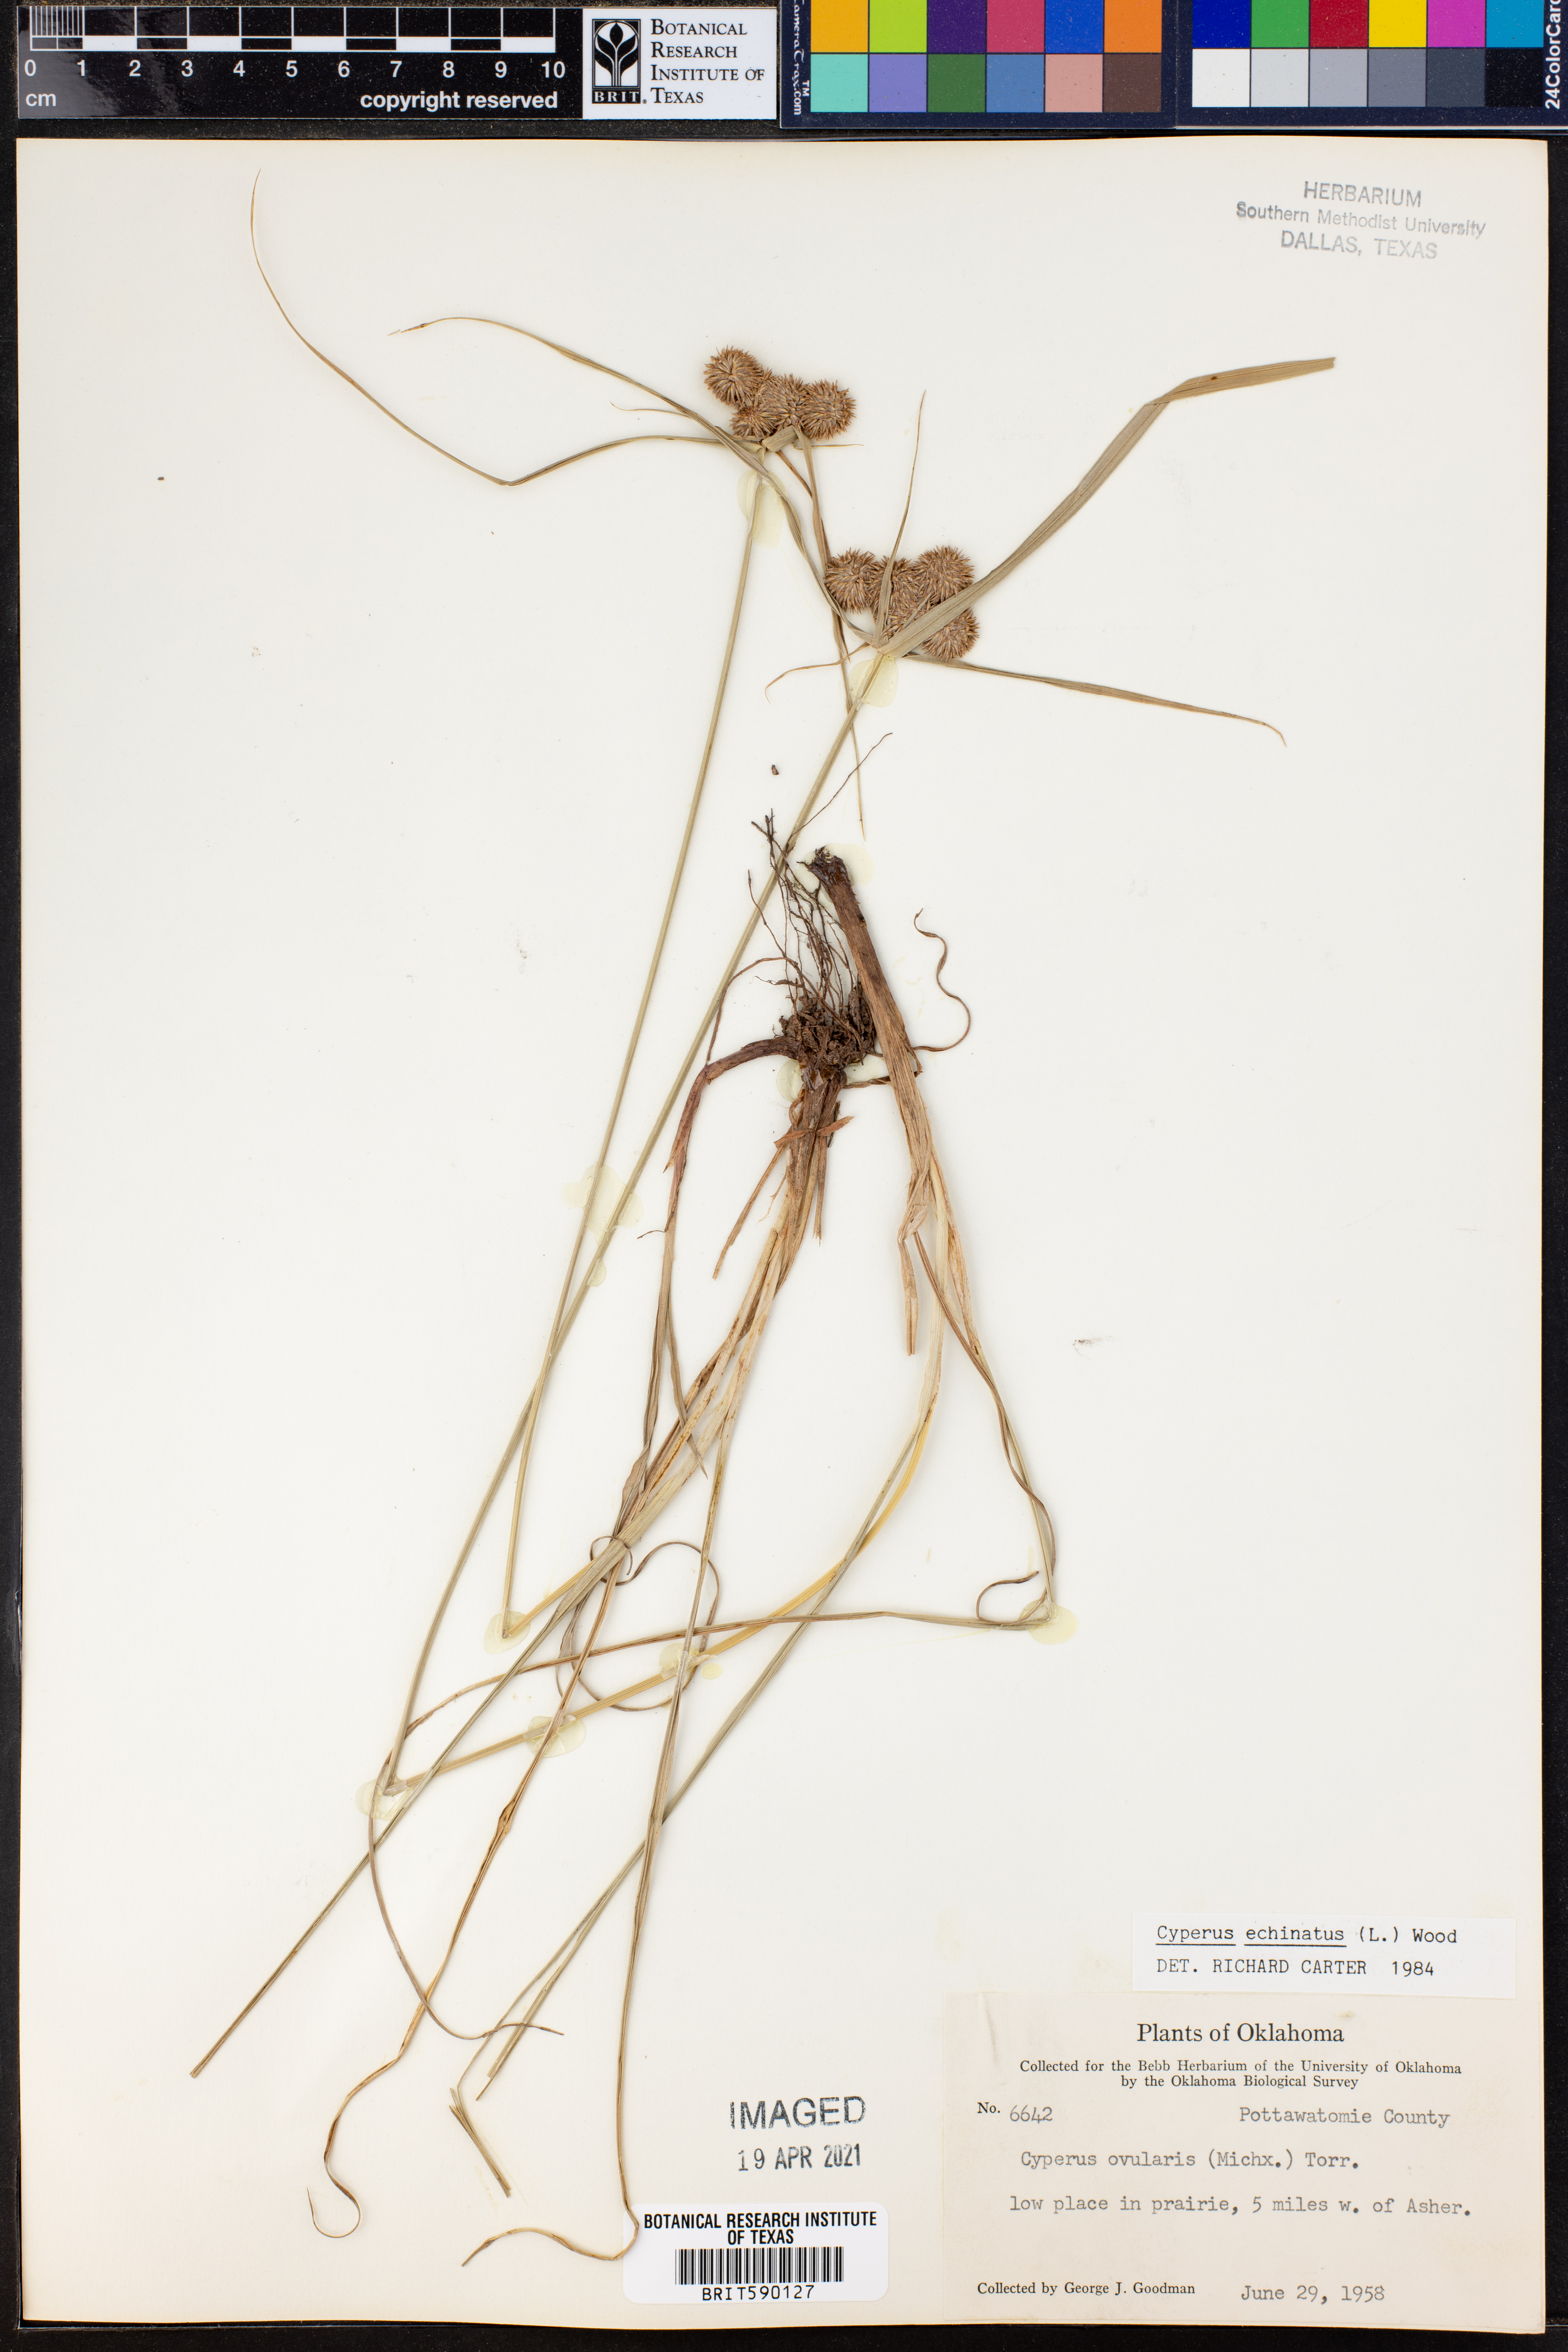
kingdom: Plantae
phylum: Tracheophyta
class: Liliopsida
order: Poales
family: Cyperaceae
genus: Cyperus
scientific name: Cyperus echinatus
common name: Teasel sedge
